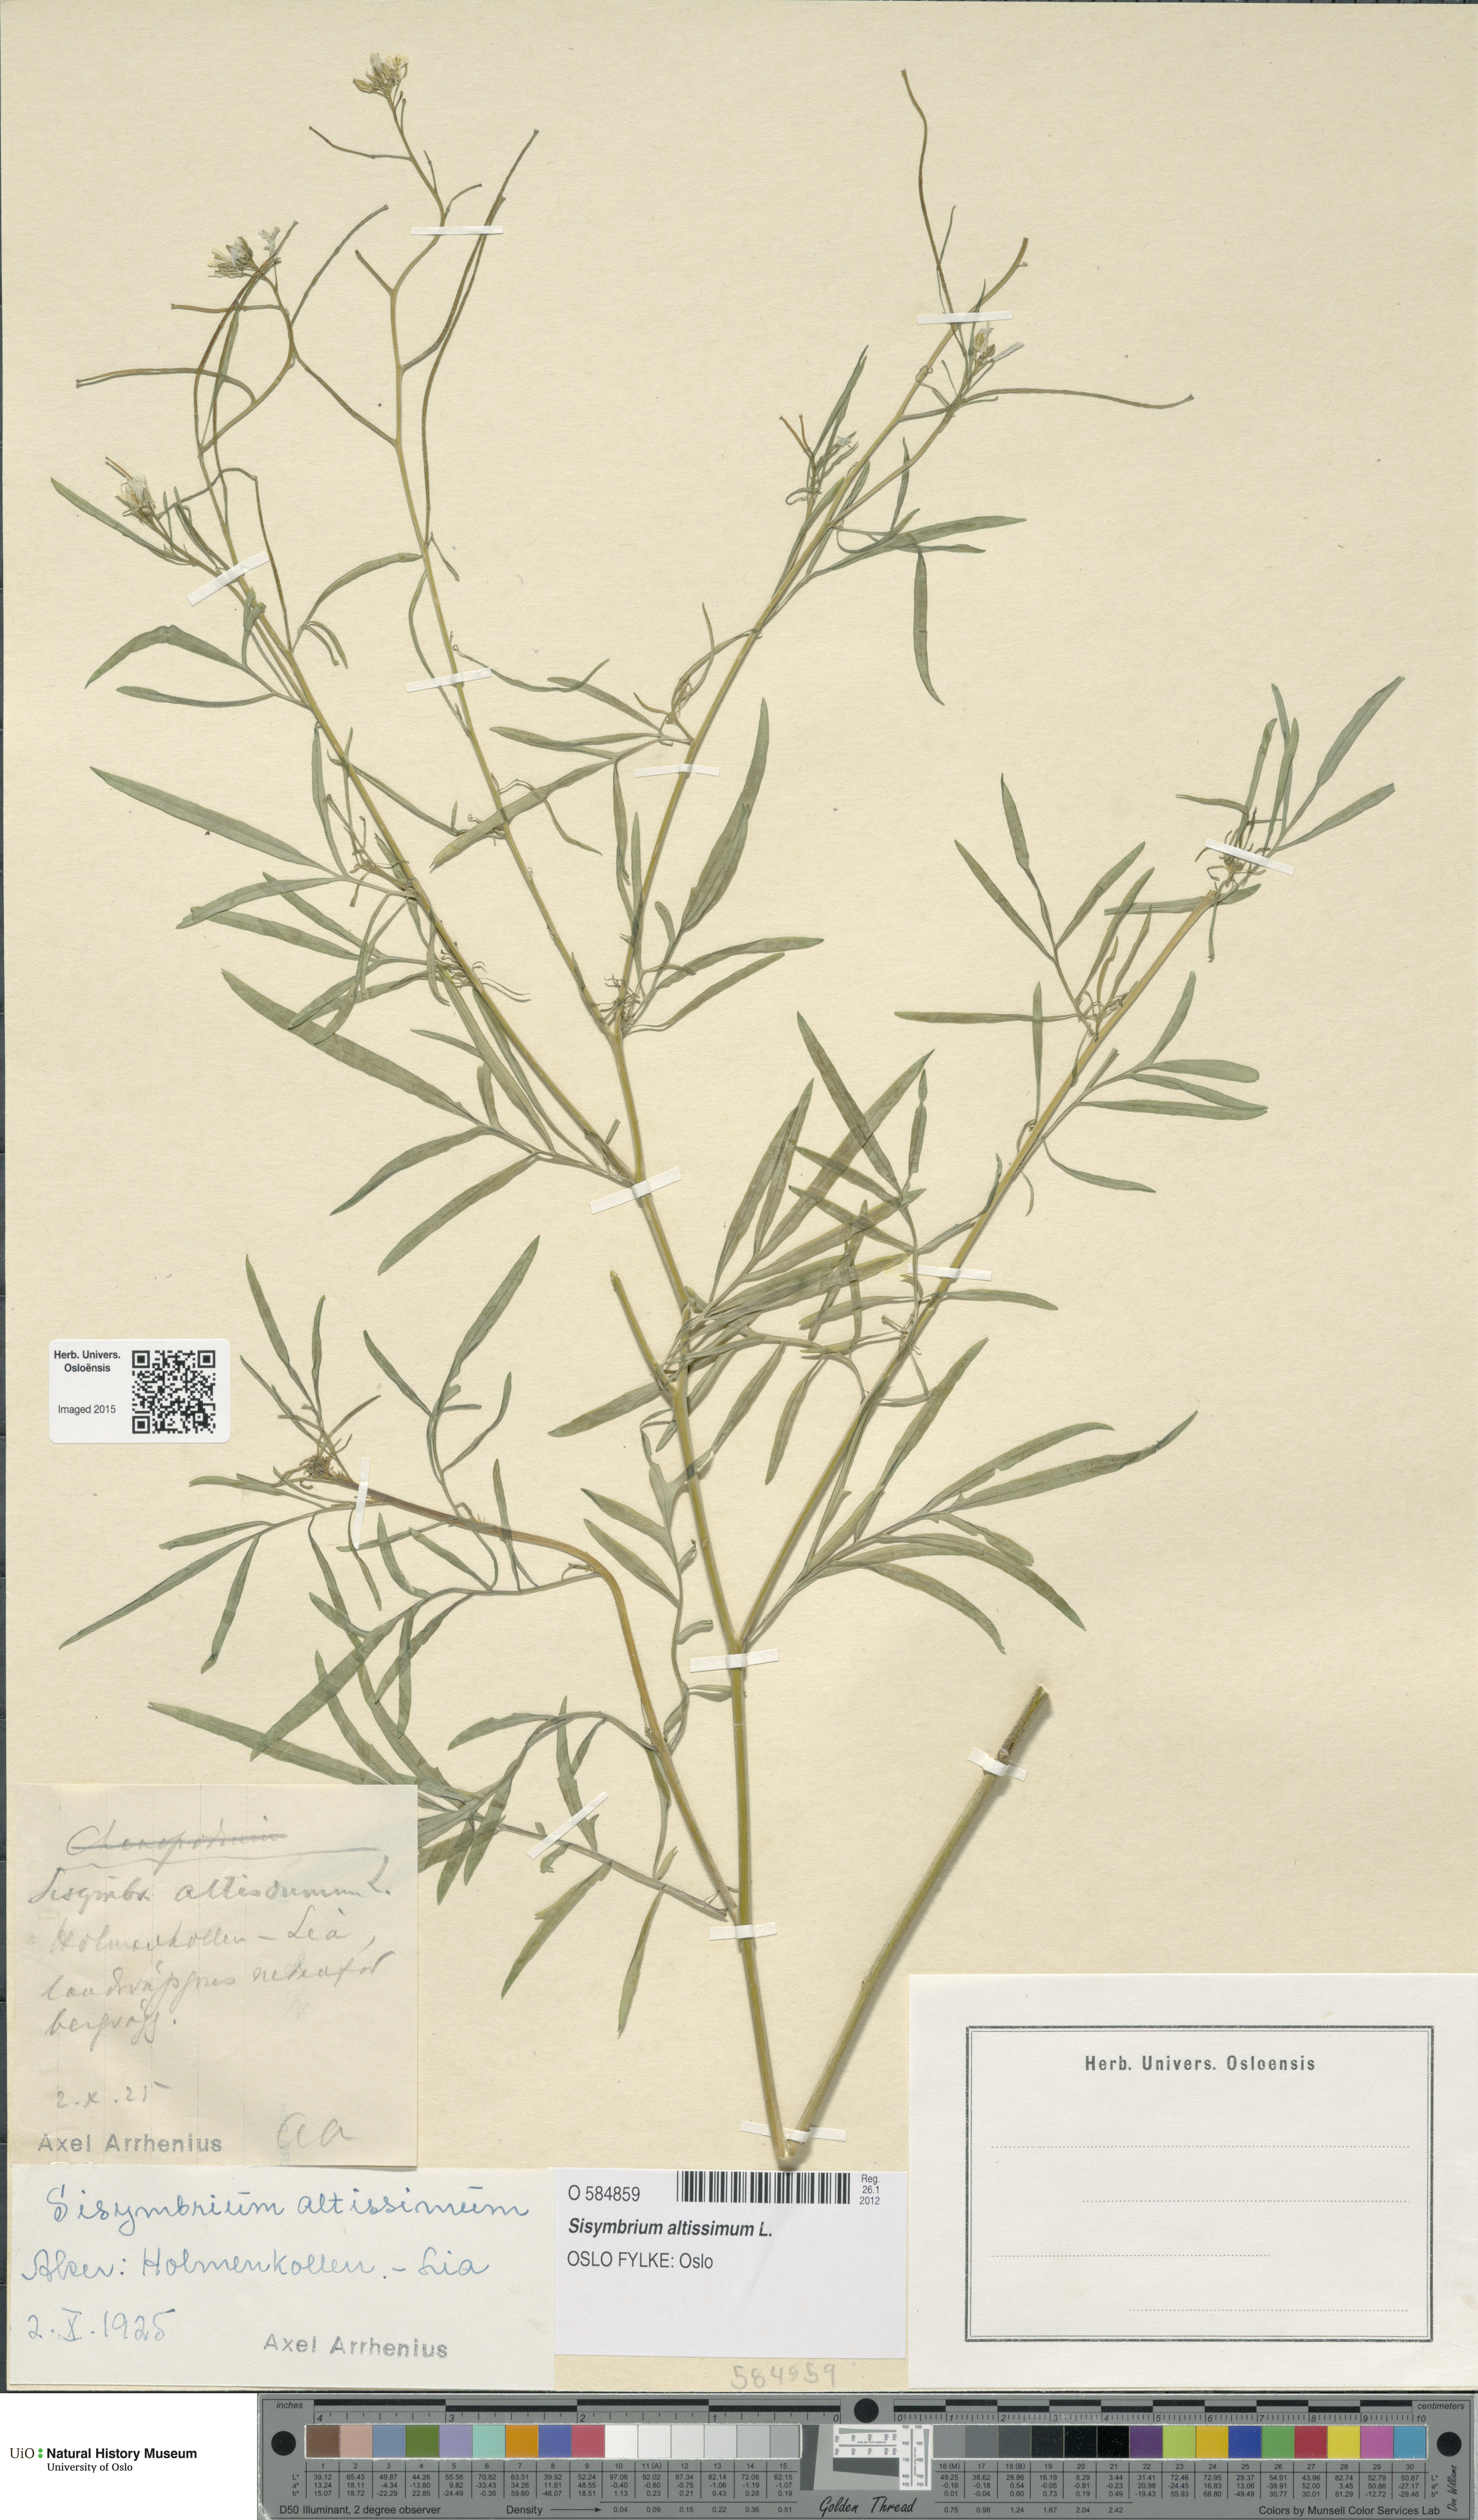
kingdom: Plantae
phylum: Tracheophyta
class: Magnoliopsida
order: Brassicales
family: Brassicaceae
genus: Sisymbrium
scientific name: Sisymbrium altissimum
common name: Tall rocket
